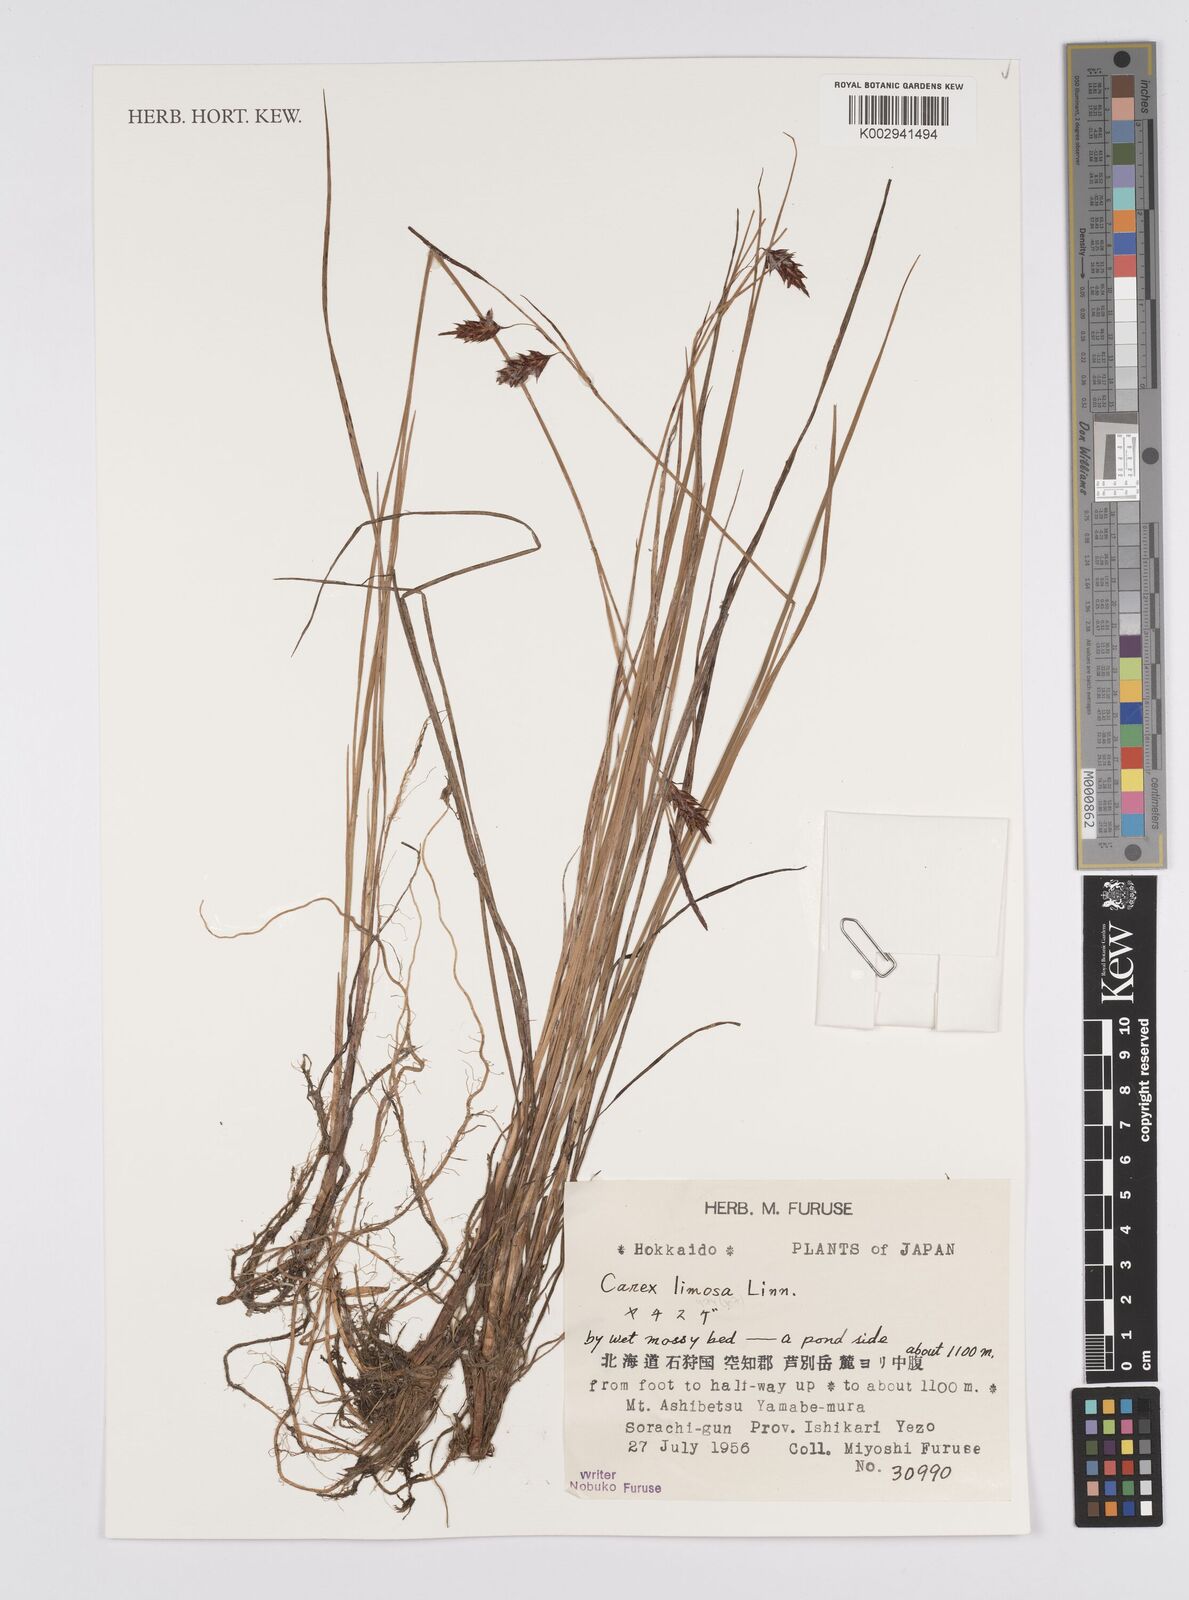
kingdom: Plantae
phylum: Tracheophyta
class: Liliopsida
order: Poales
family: Cyperaceae
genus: Carex
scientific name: Carex limosa
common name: Bog sedge
